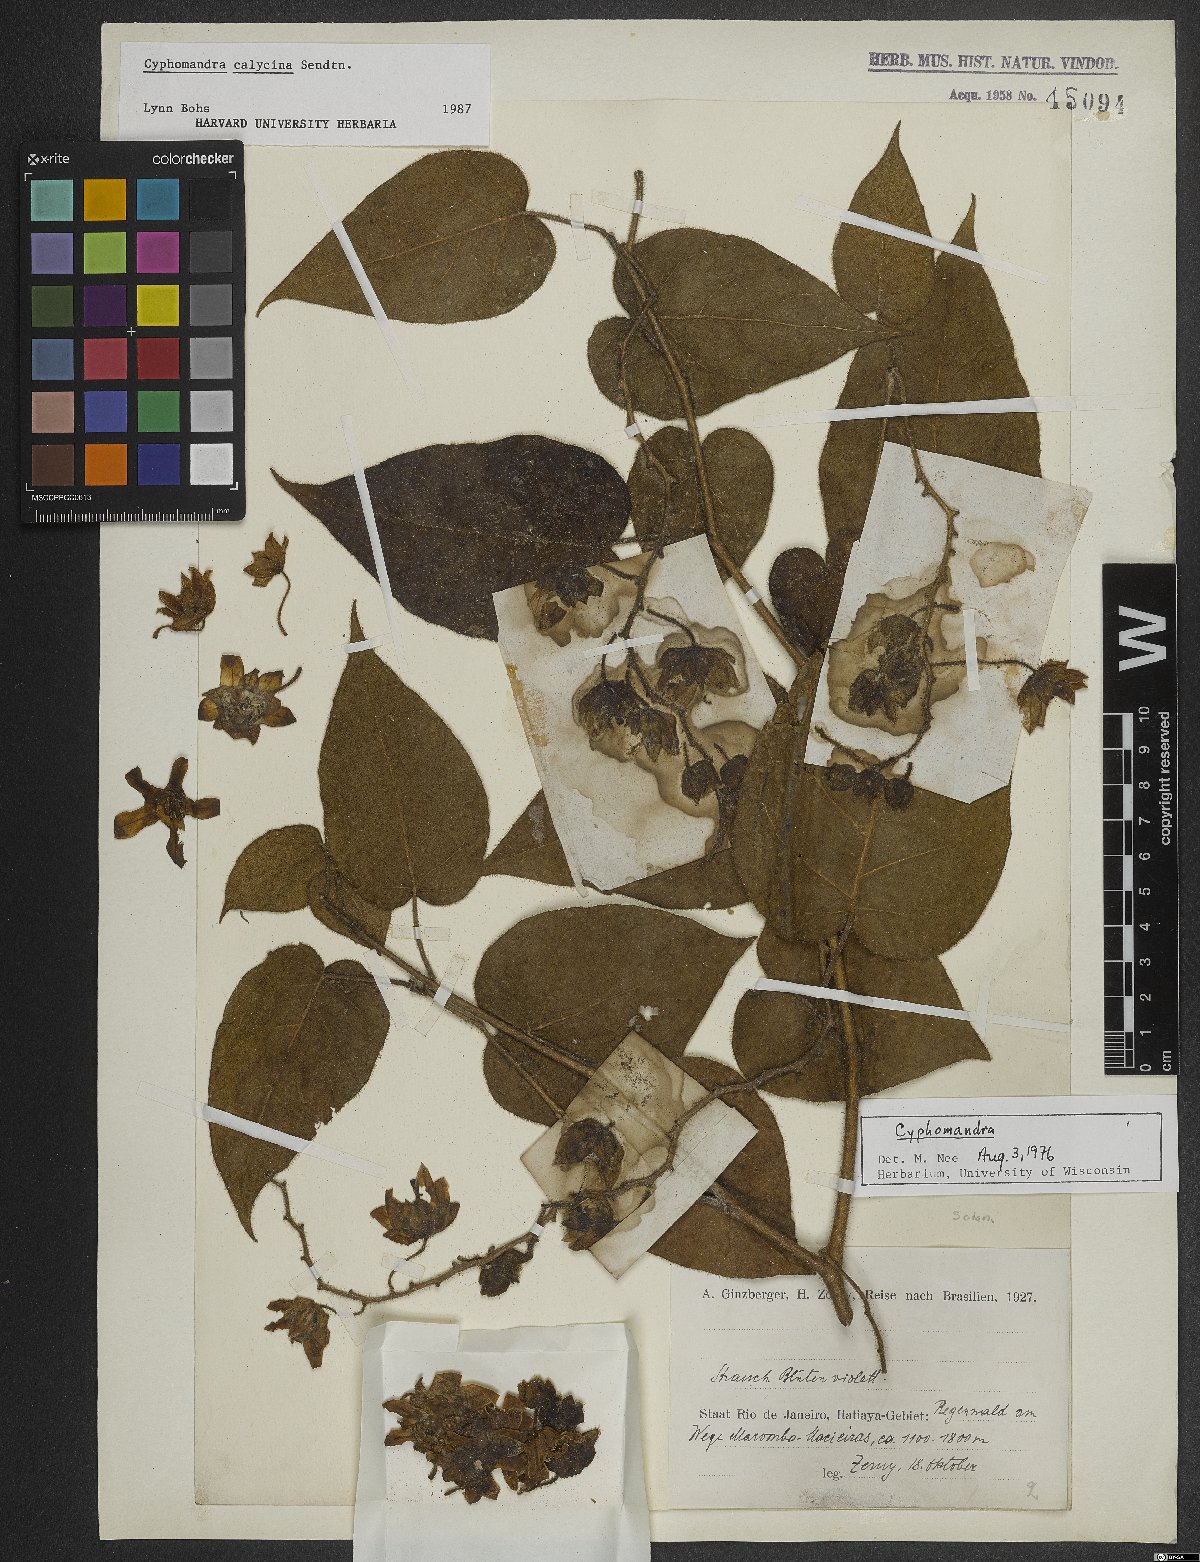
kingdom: Plantae
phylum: Tracheophyta
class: Magnoliopsida
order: Solanales
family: Solanaceae
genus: Solanum
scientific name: Solanum latiflorum
